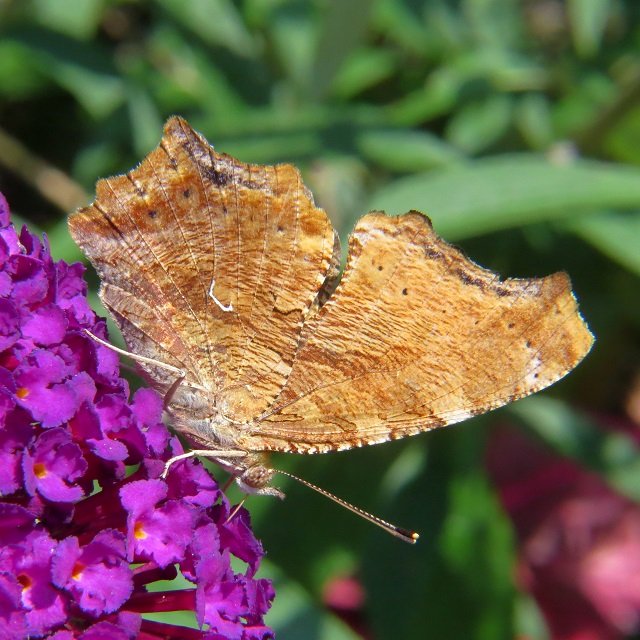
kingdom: Animalia
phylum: Arthropoda
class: Insecta
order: Lepidoptera
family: Nymphalidae
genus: Polygonia
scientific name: Polygonia comma
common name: Eastern Comma
